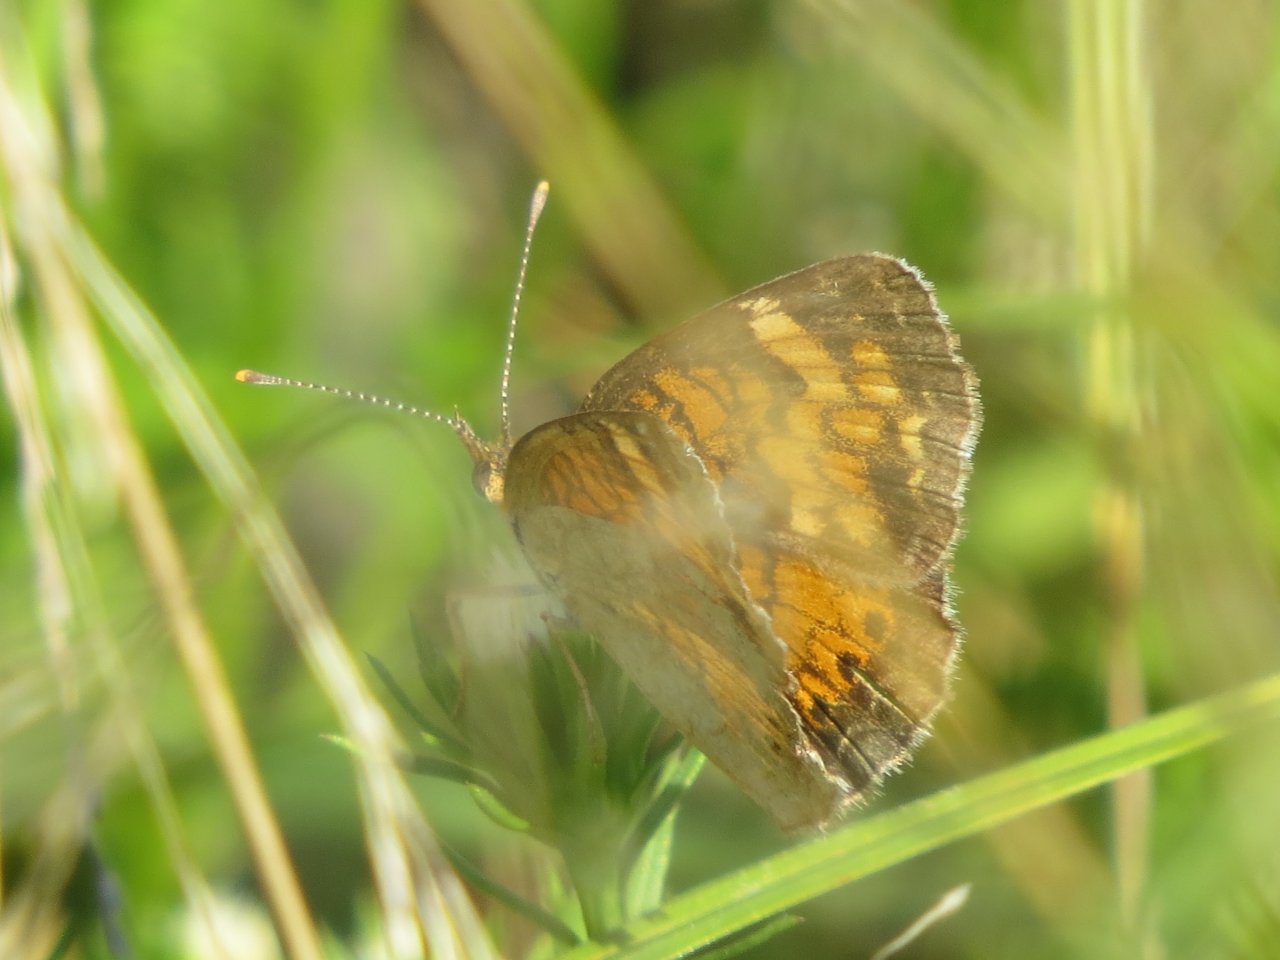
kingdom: Animalia
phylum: Arthropoda
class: Insecta
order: Lepidoptera
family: Nymphalidae
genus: Phyciodes
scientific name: Phyciodes tharos
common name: Northern Crescent
